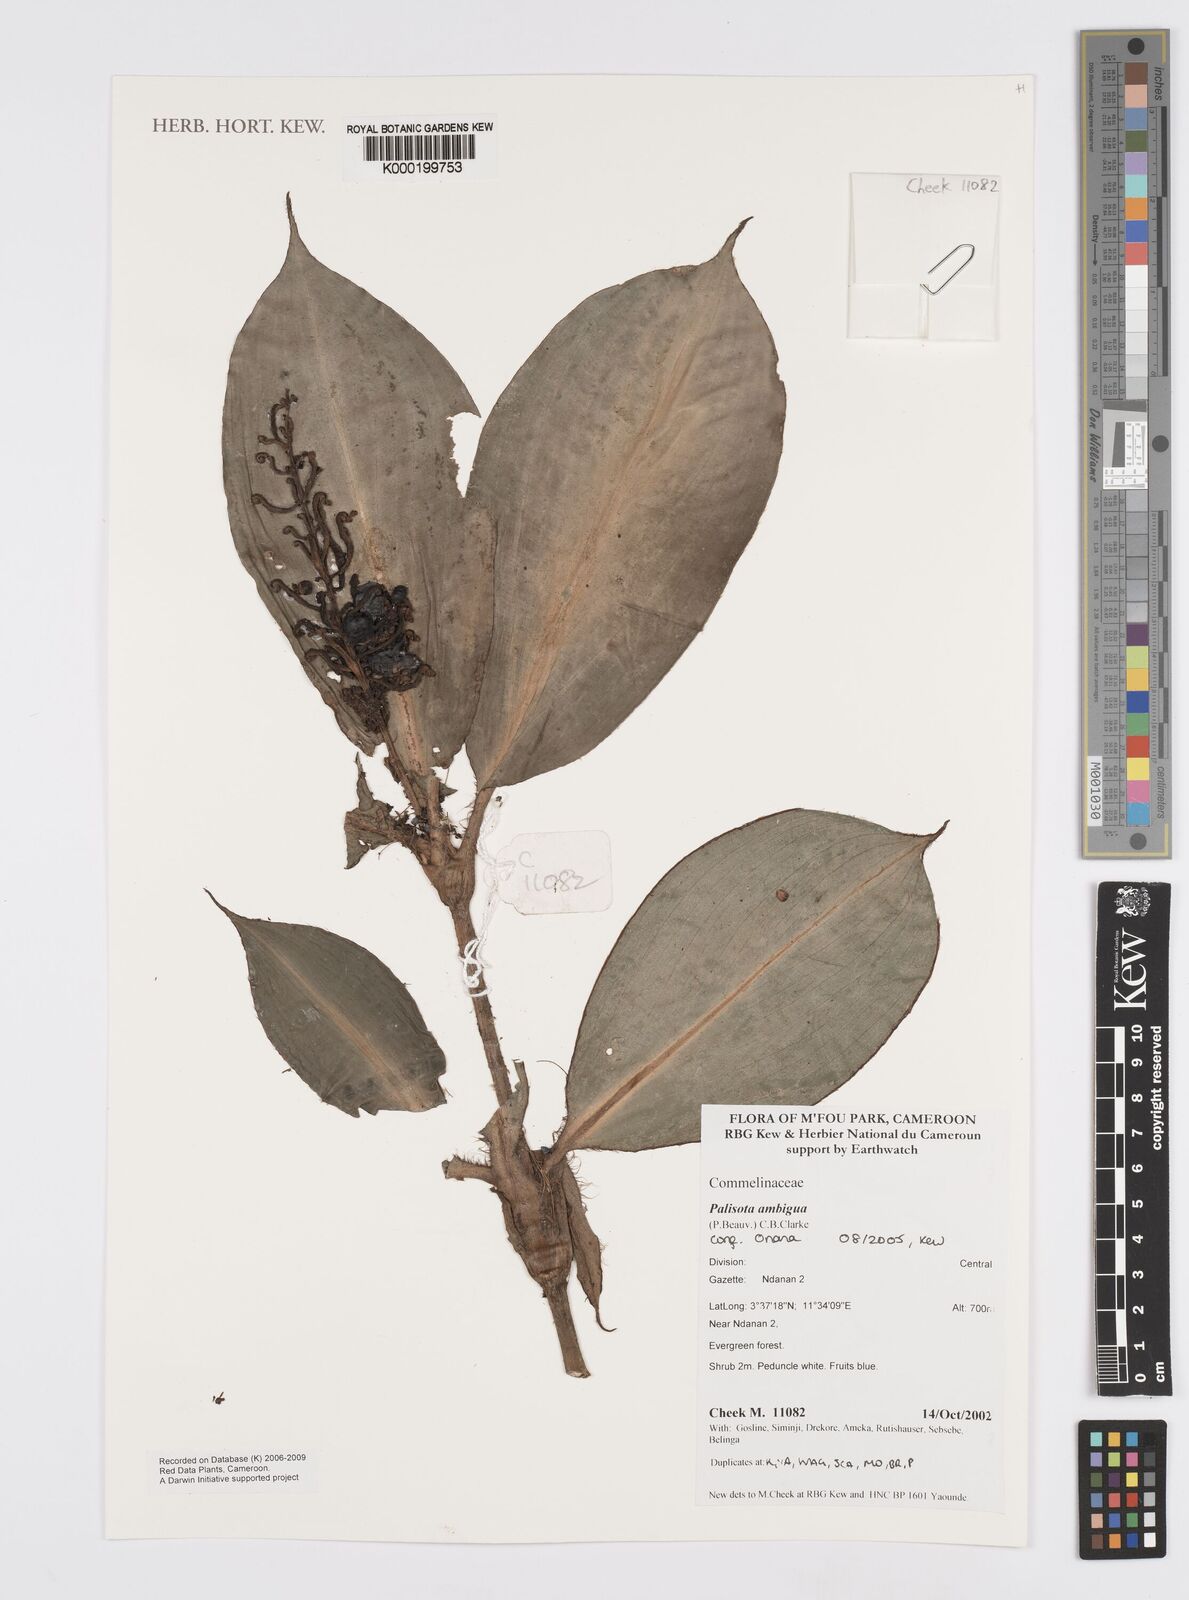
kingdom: Plantae
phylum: Tracheophyta
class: Liliopsida
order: Commelinales
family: Commelinaceae
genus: Palisota
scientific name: Palisota ambigua
